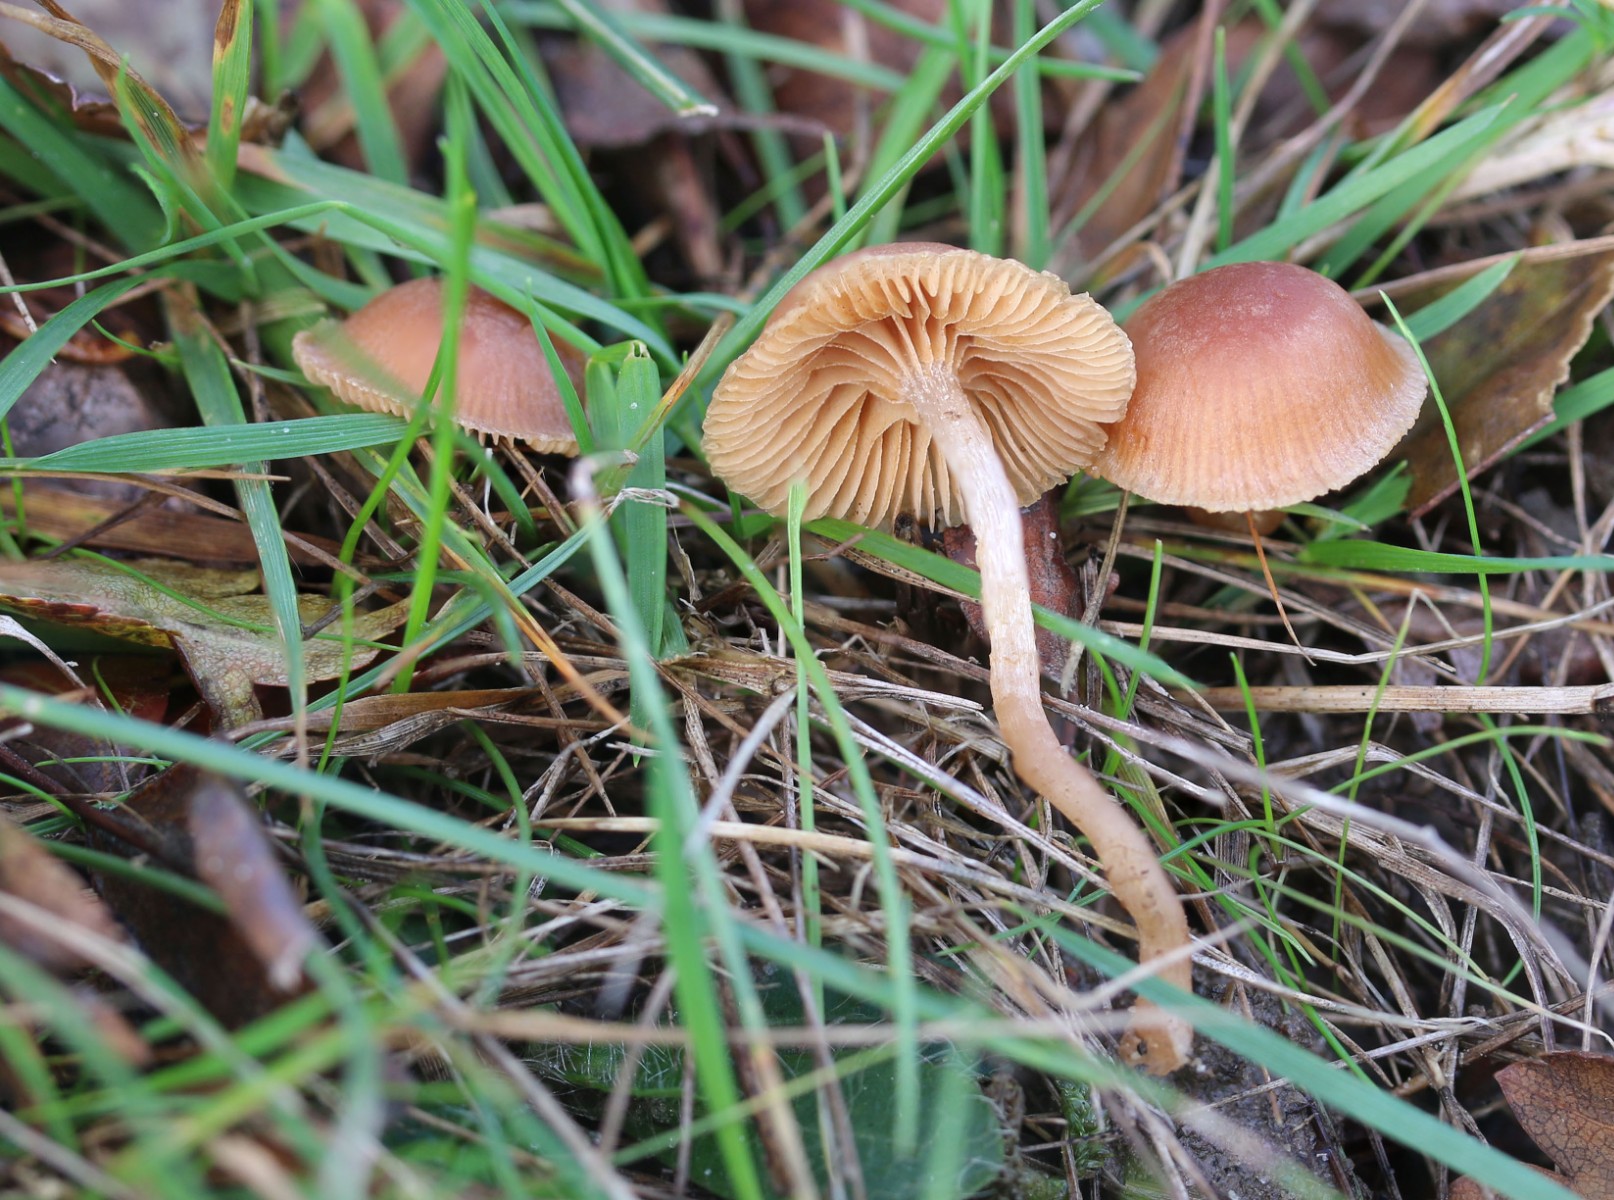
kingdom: Fungi
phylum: Basidiomycota
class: Agaricomycetes
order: Agaricales
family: Tubariaceae
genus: Tubaria
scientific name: Tubaria furfuracea
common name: kliddet fnughat
